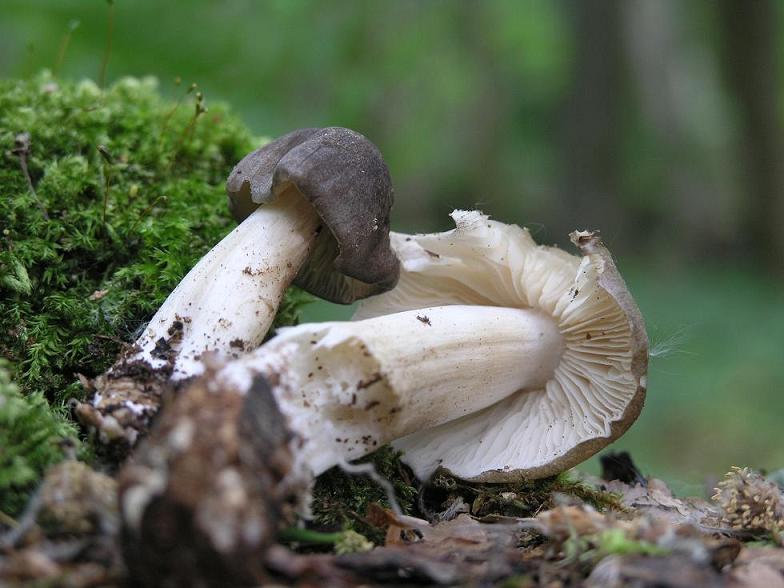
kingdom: Fungi
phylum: Basidiomycota
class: Agaricomycetes
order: Agaricales
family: Tricholomataceae
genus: Megacollybia
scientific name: Megacollybia platyphylla
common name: bredbladet væbnerhat
